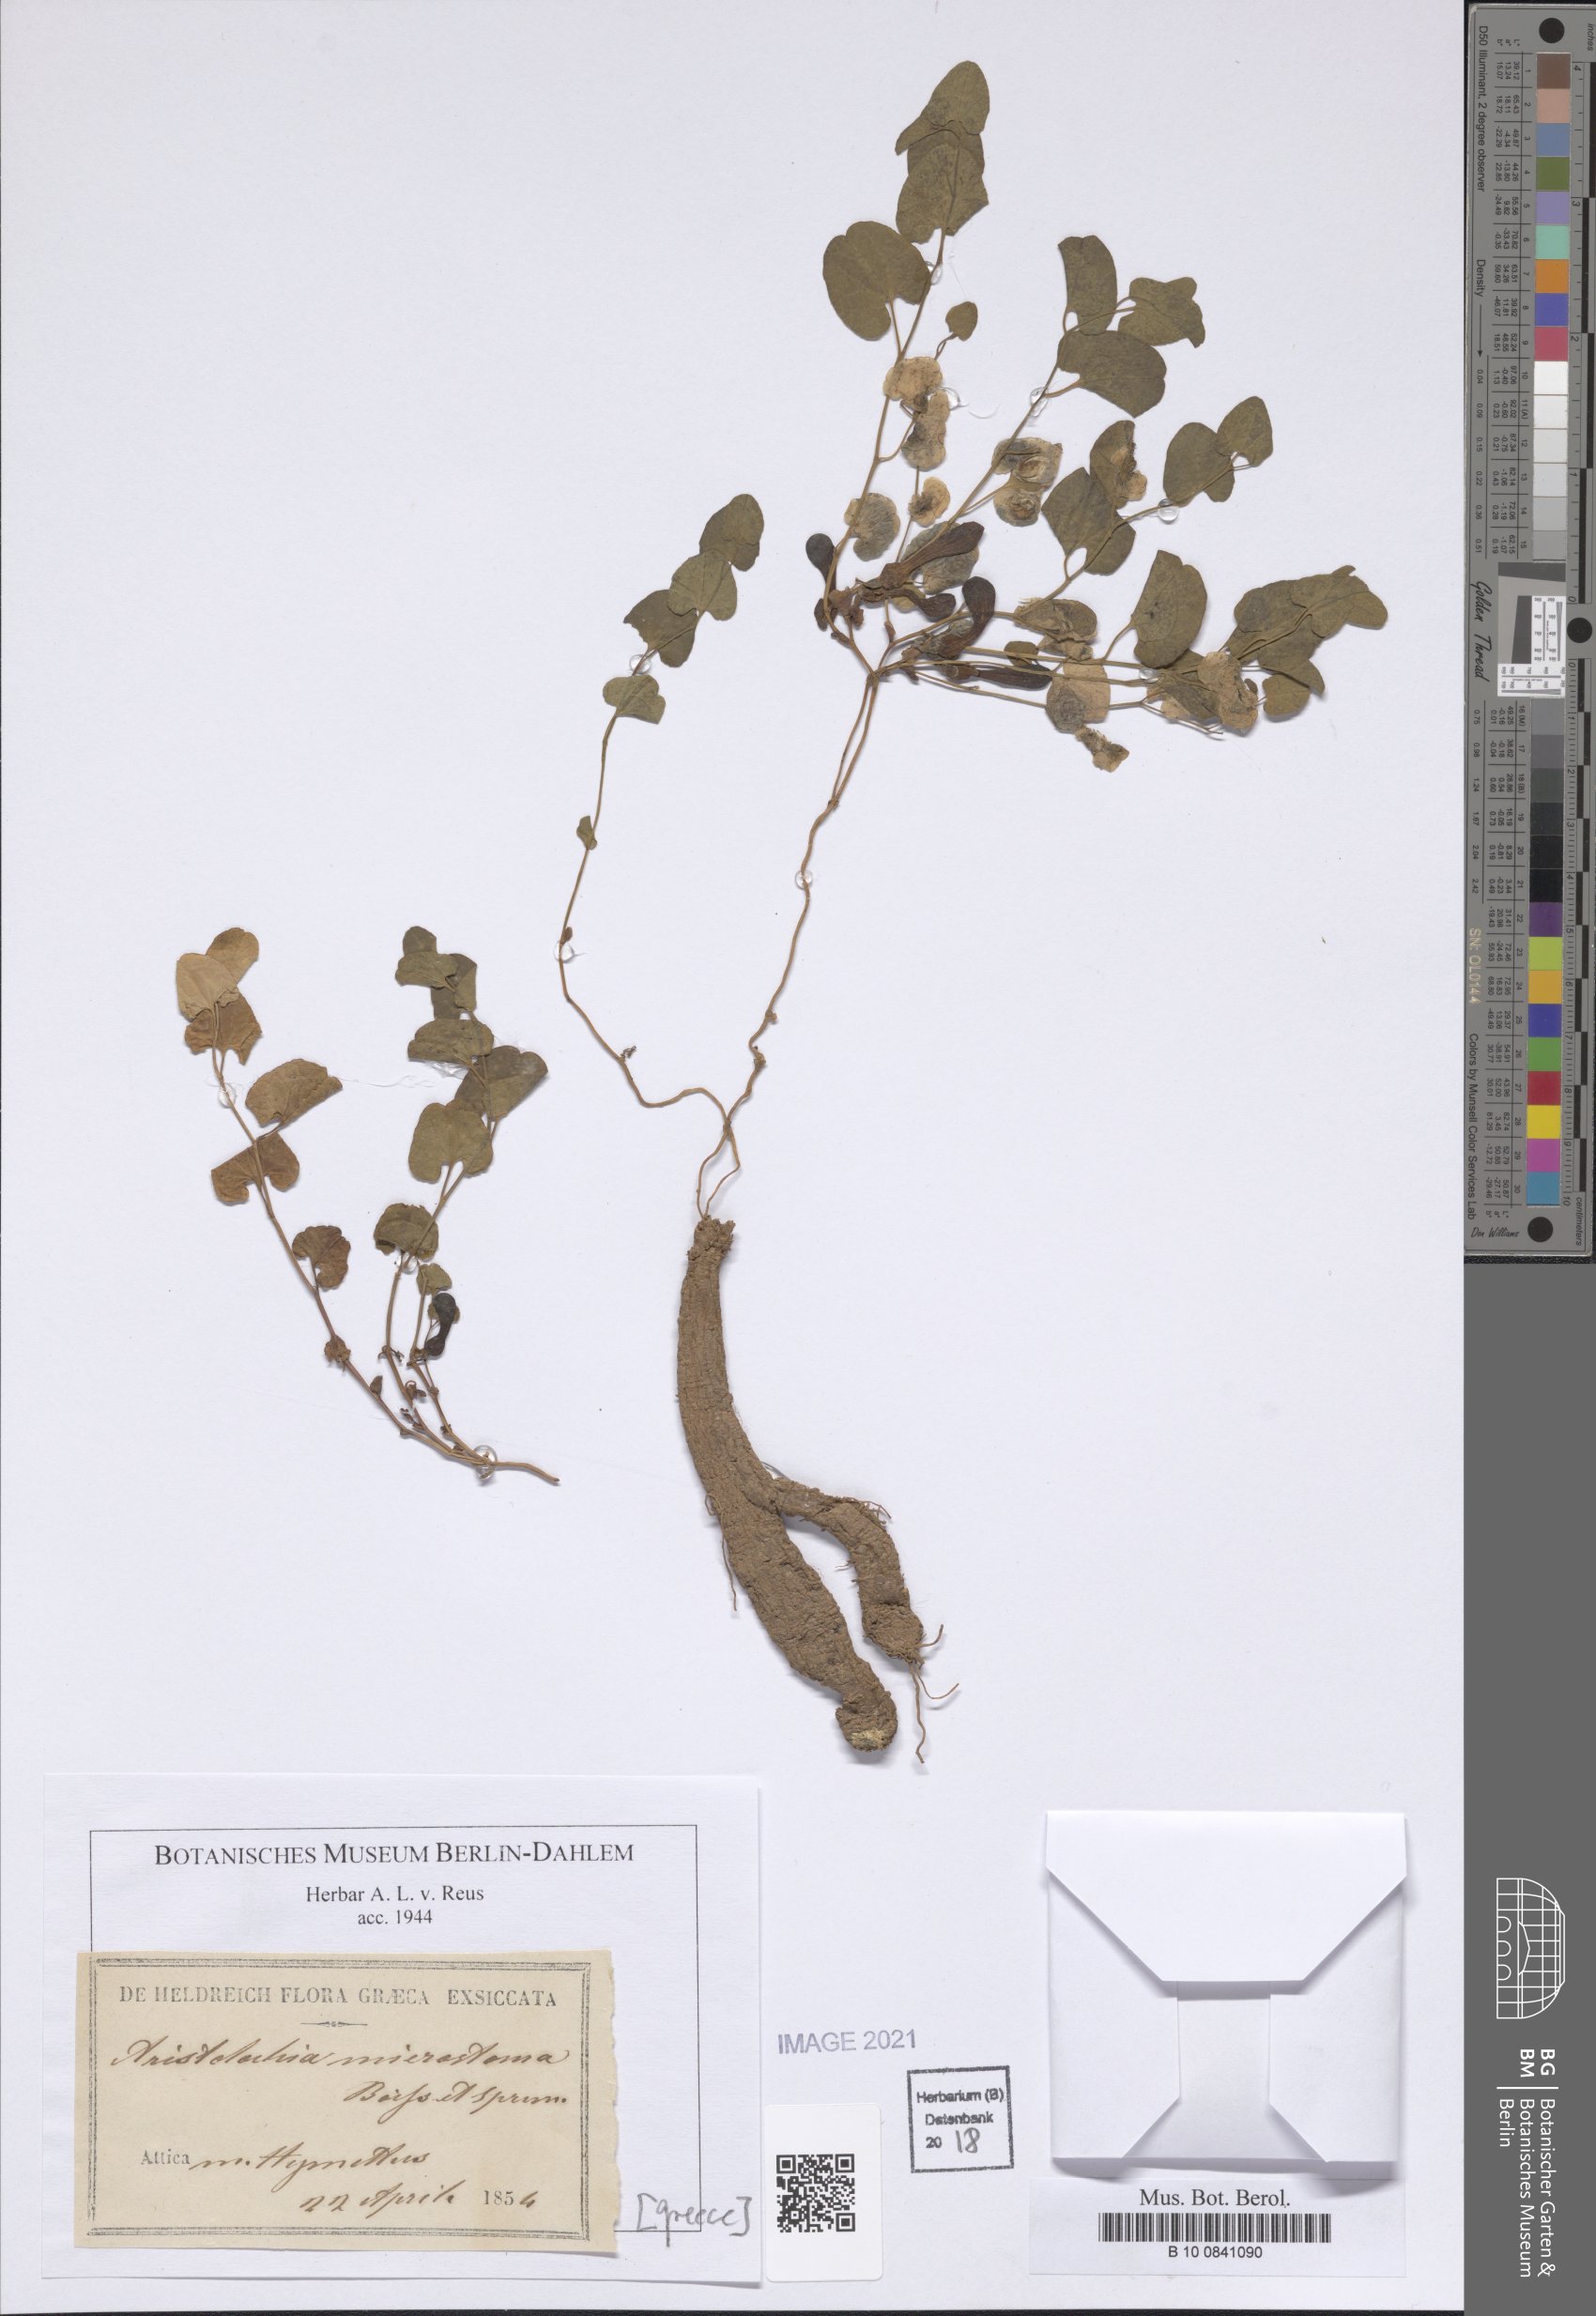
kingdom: Plantae
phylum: Tracheophyta
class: Magnoliopsida
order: Piperales
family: Aristolochiaceae
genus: Aristolochia
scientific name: Aristolochia microstoma
